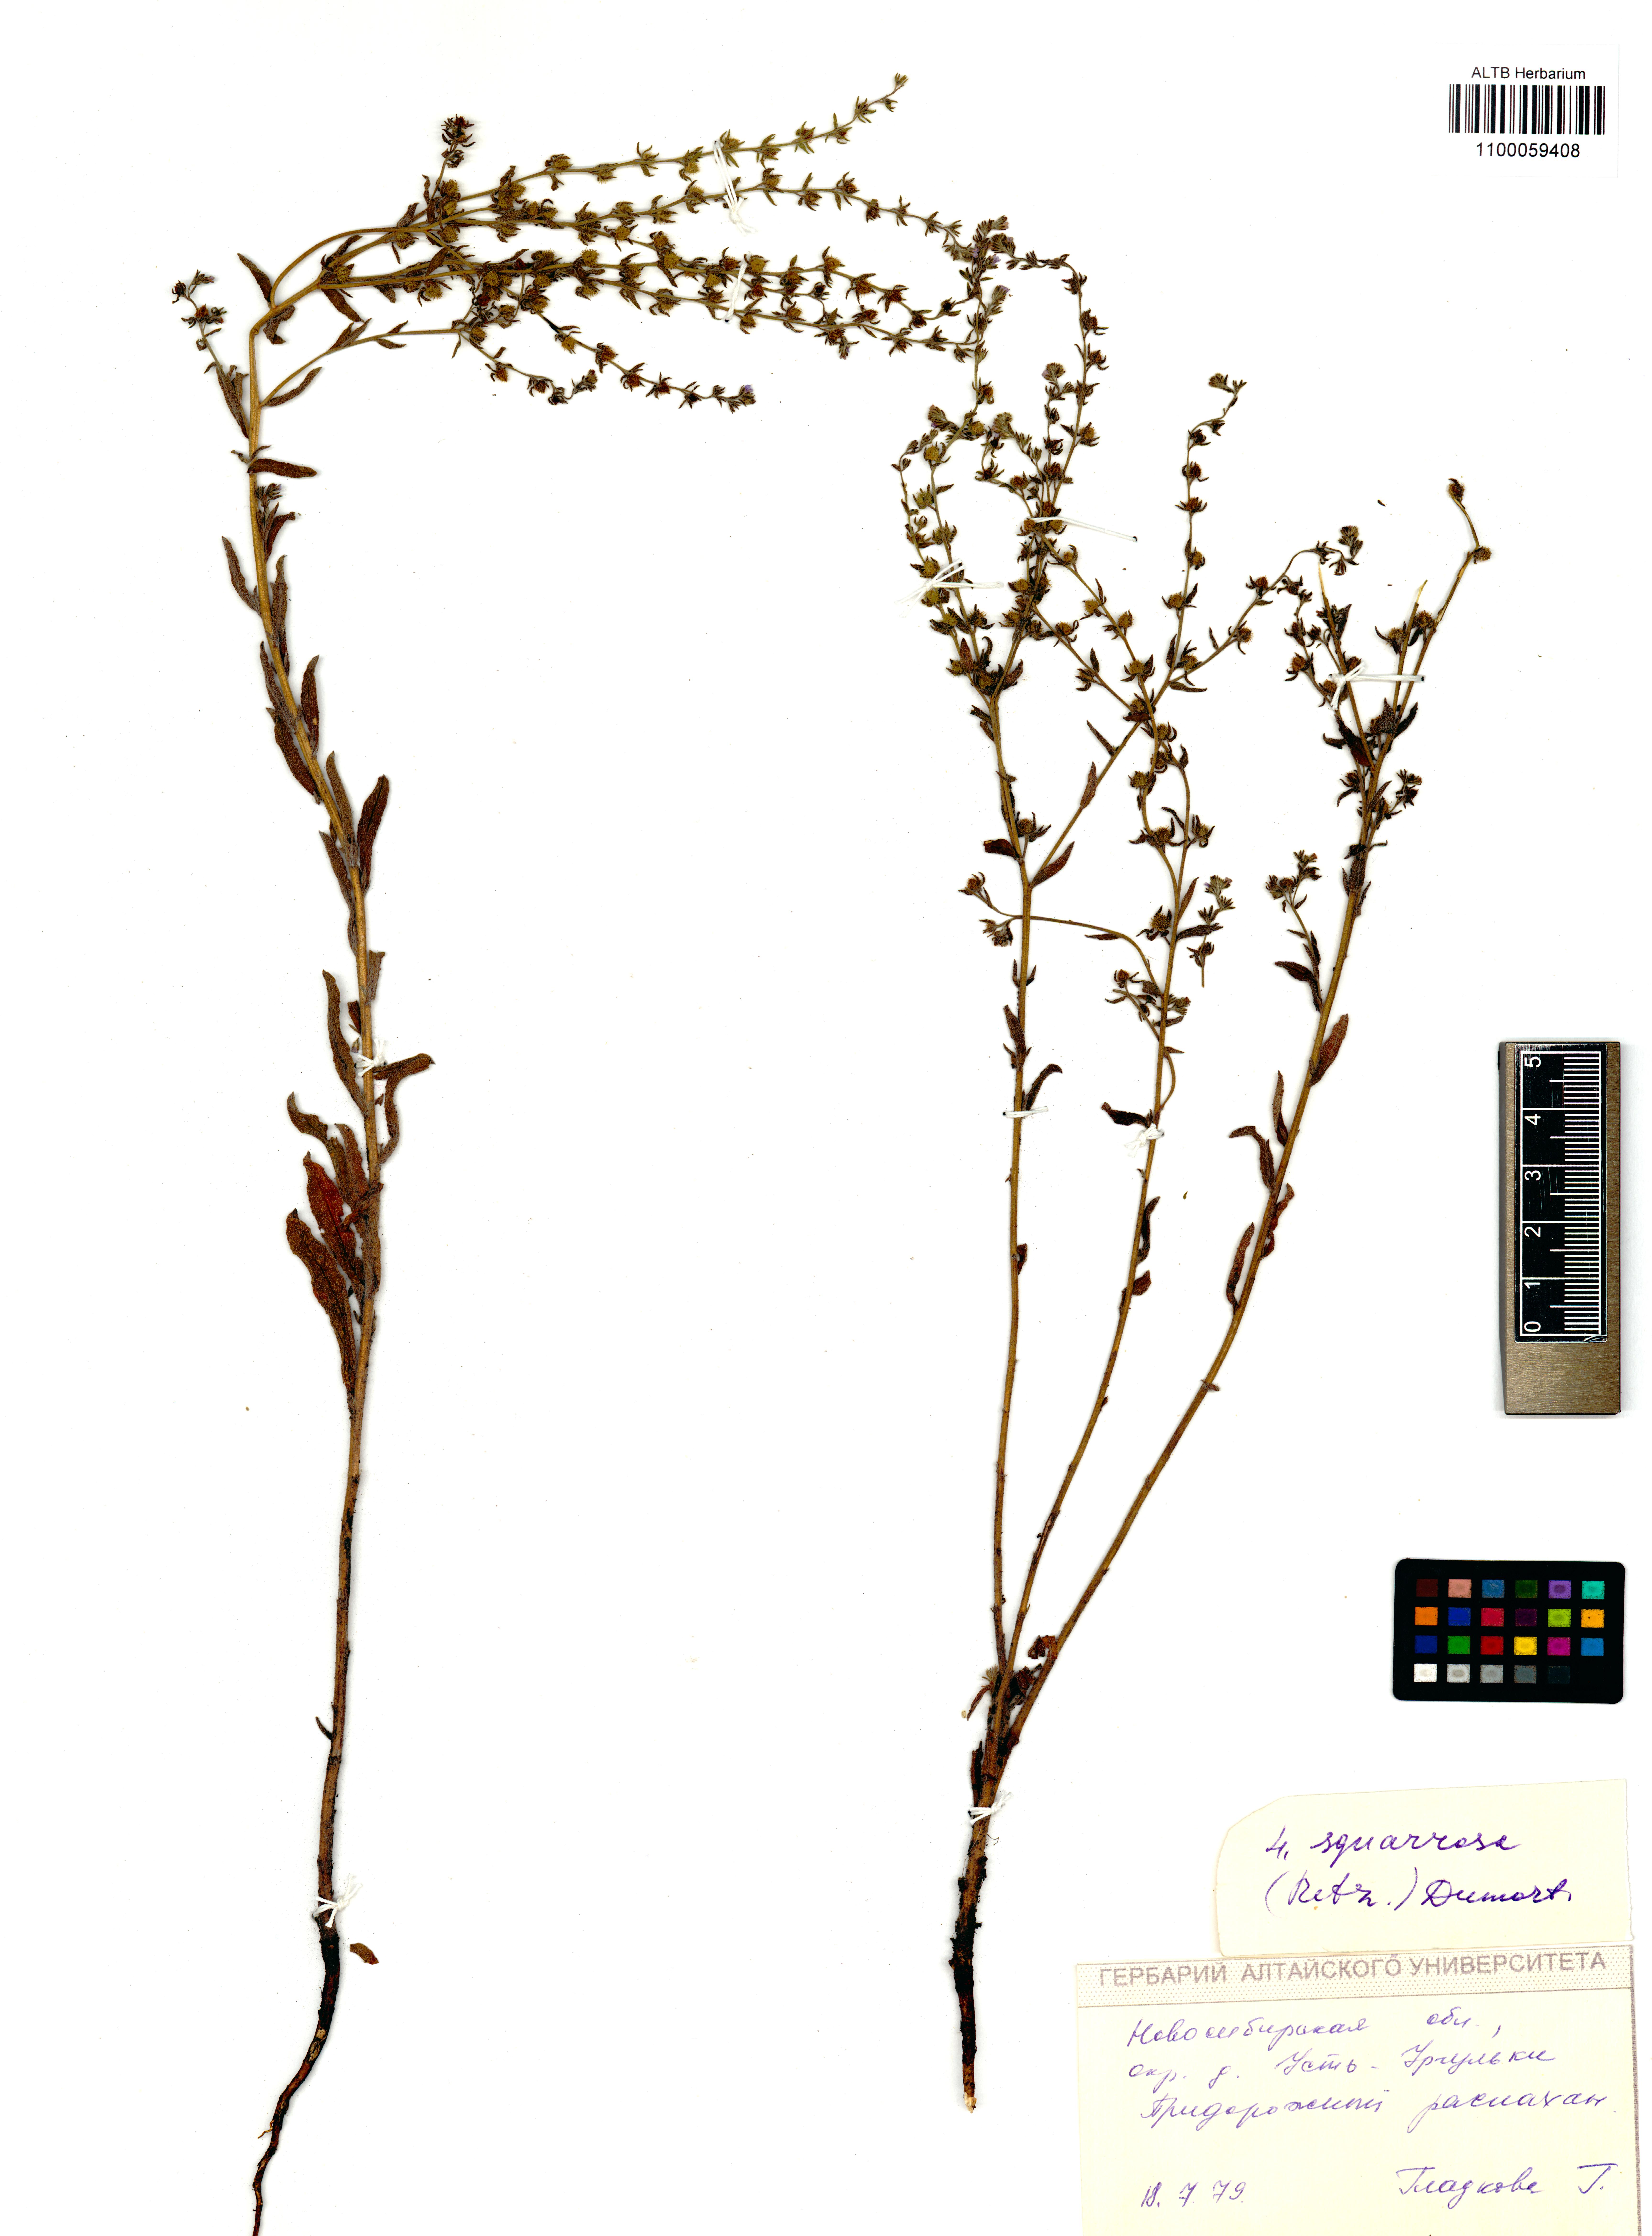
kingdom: Plantae
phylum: Tracheophyta
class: Magnoliopsida
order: Boraginales
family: Boraginaceae
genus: Lappula
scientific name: Lappula squarrosa
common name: European stickseed
